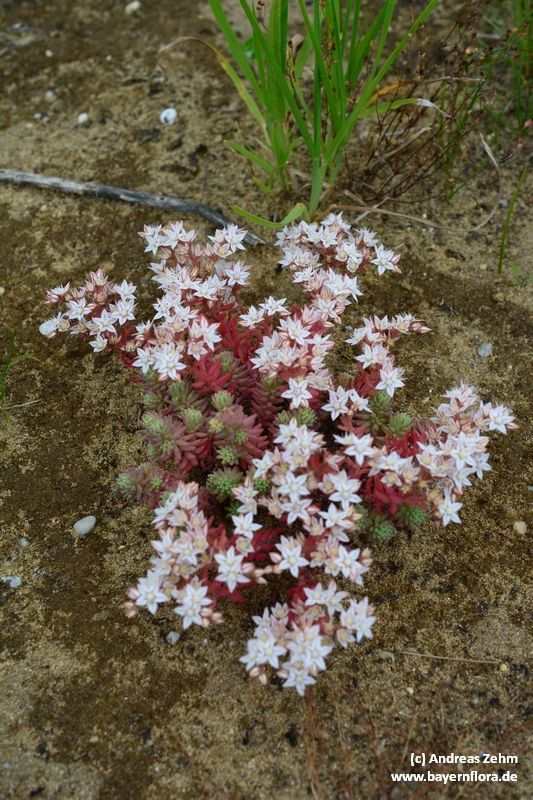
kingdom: Plantae
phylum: Tracheophyta
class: Magnoliopsida
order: Saxifragales
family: Crassulaceae
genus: Sedum
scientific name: Sedum album
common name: White stonecrop
